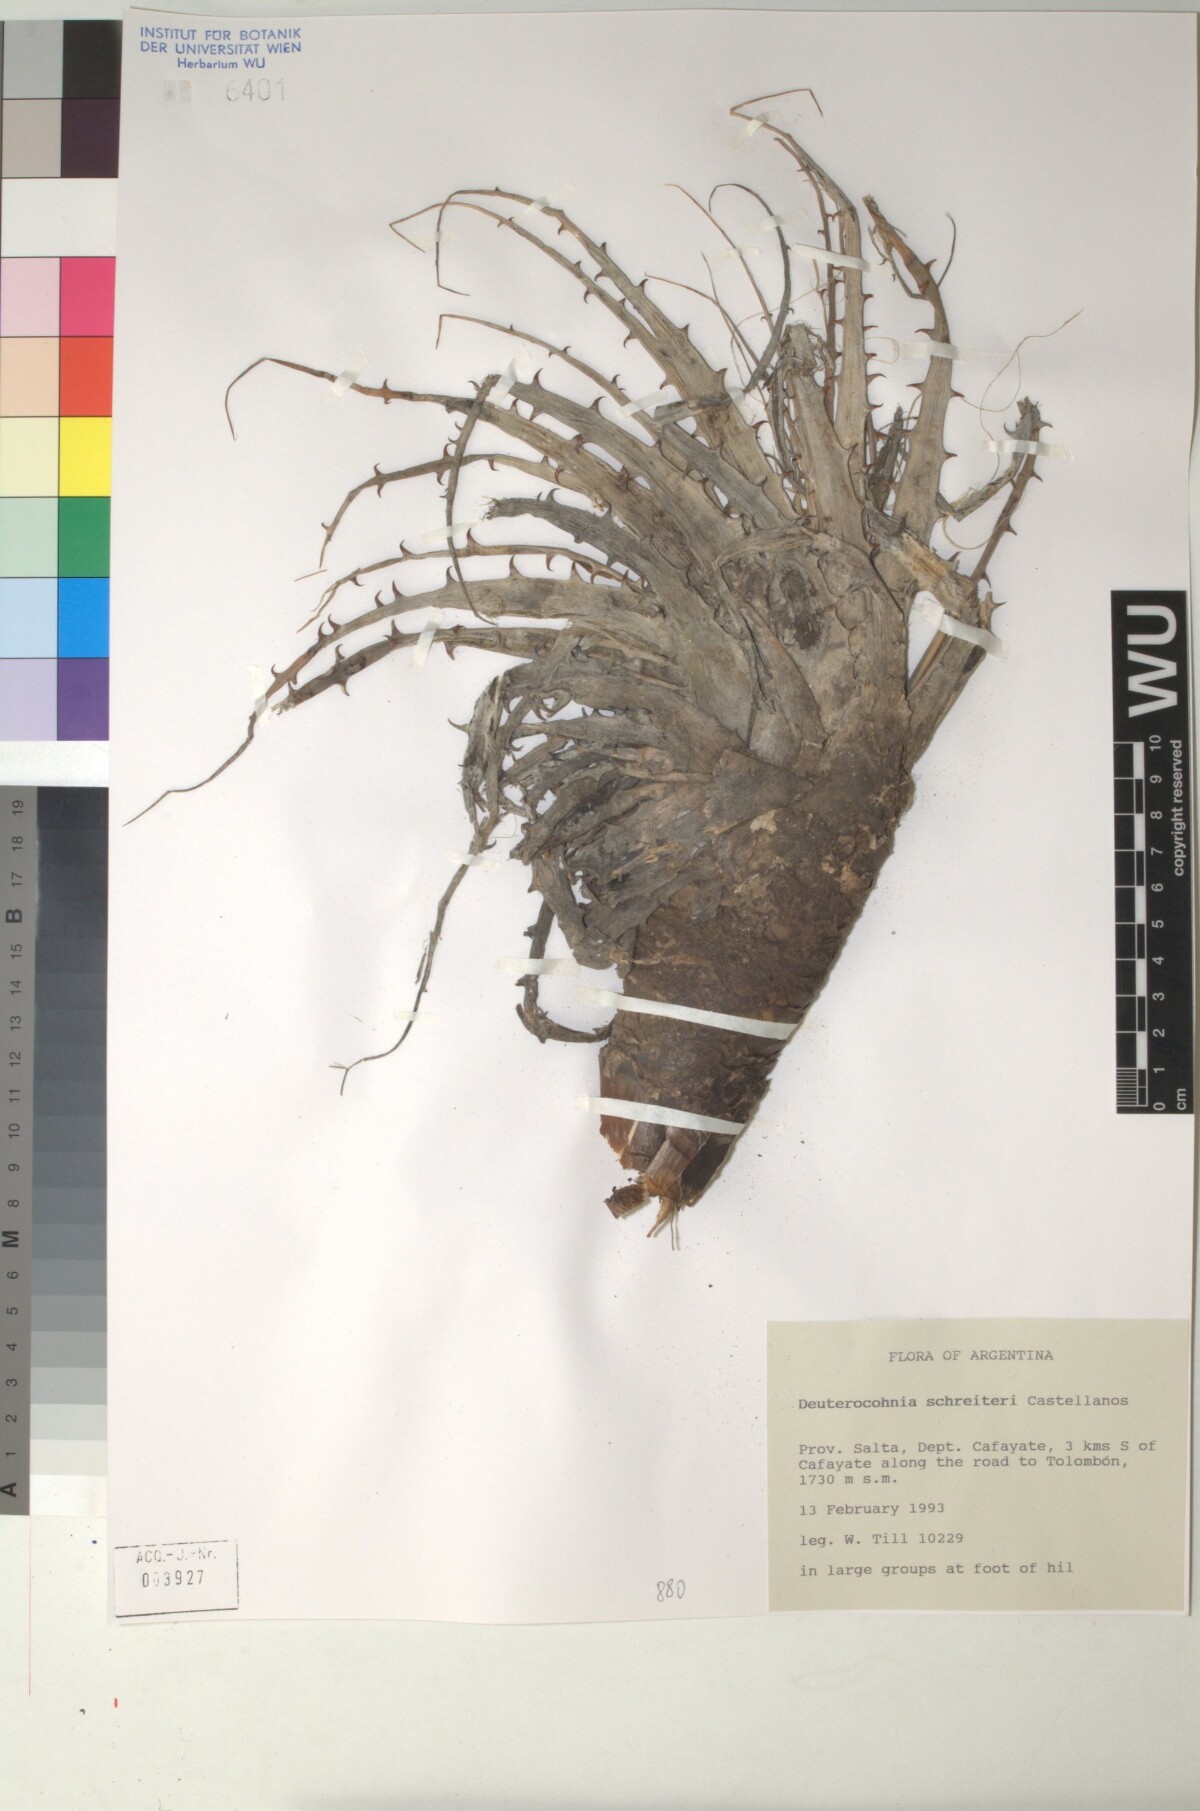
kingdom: Plantae
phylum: Tracheophyta
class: Liliopsida
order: Poales
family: Bromeliaceae
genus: Deuterocohnia
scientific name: Deuterocohnia schreiteri
